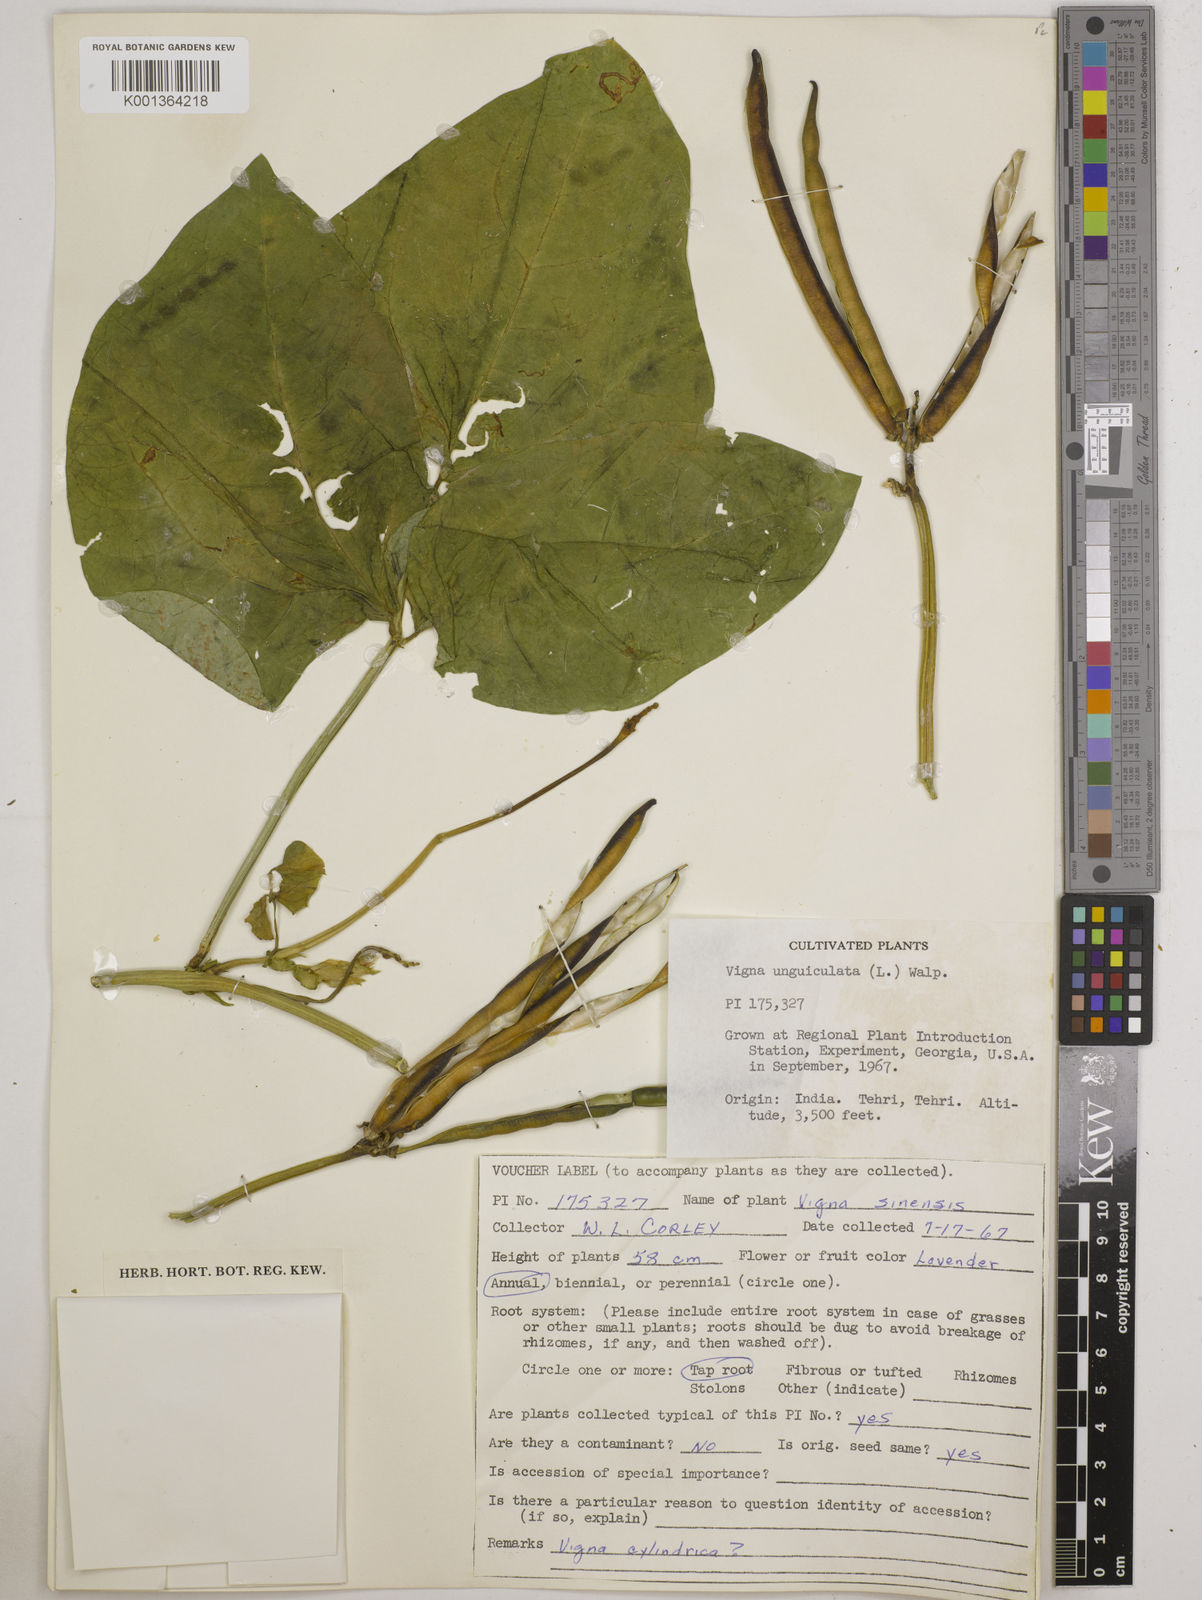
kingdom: Plantae
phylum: Tracheophyta
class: Magnoliopsida
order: Fabales
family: Fabaceae
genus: Vigna
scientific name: Vigna
